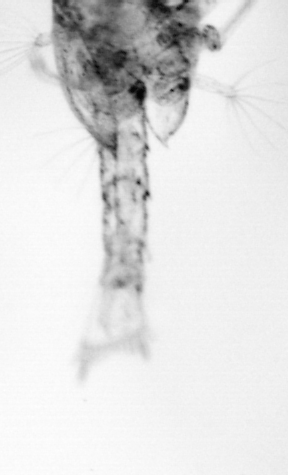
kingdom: Animalia
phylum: Arthropoda
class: Copepoda
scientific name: Copepoda
